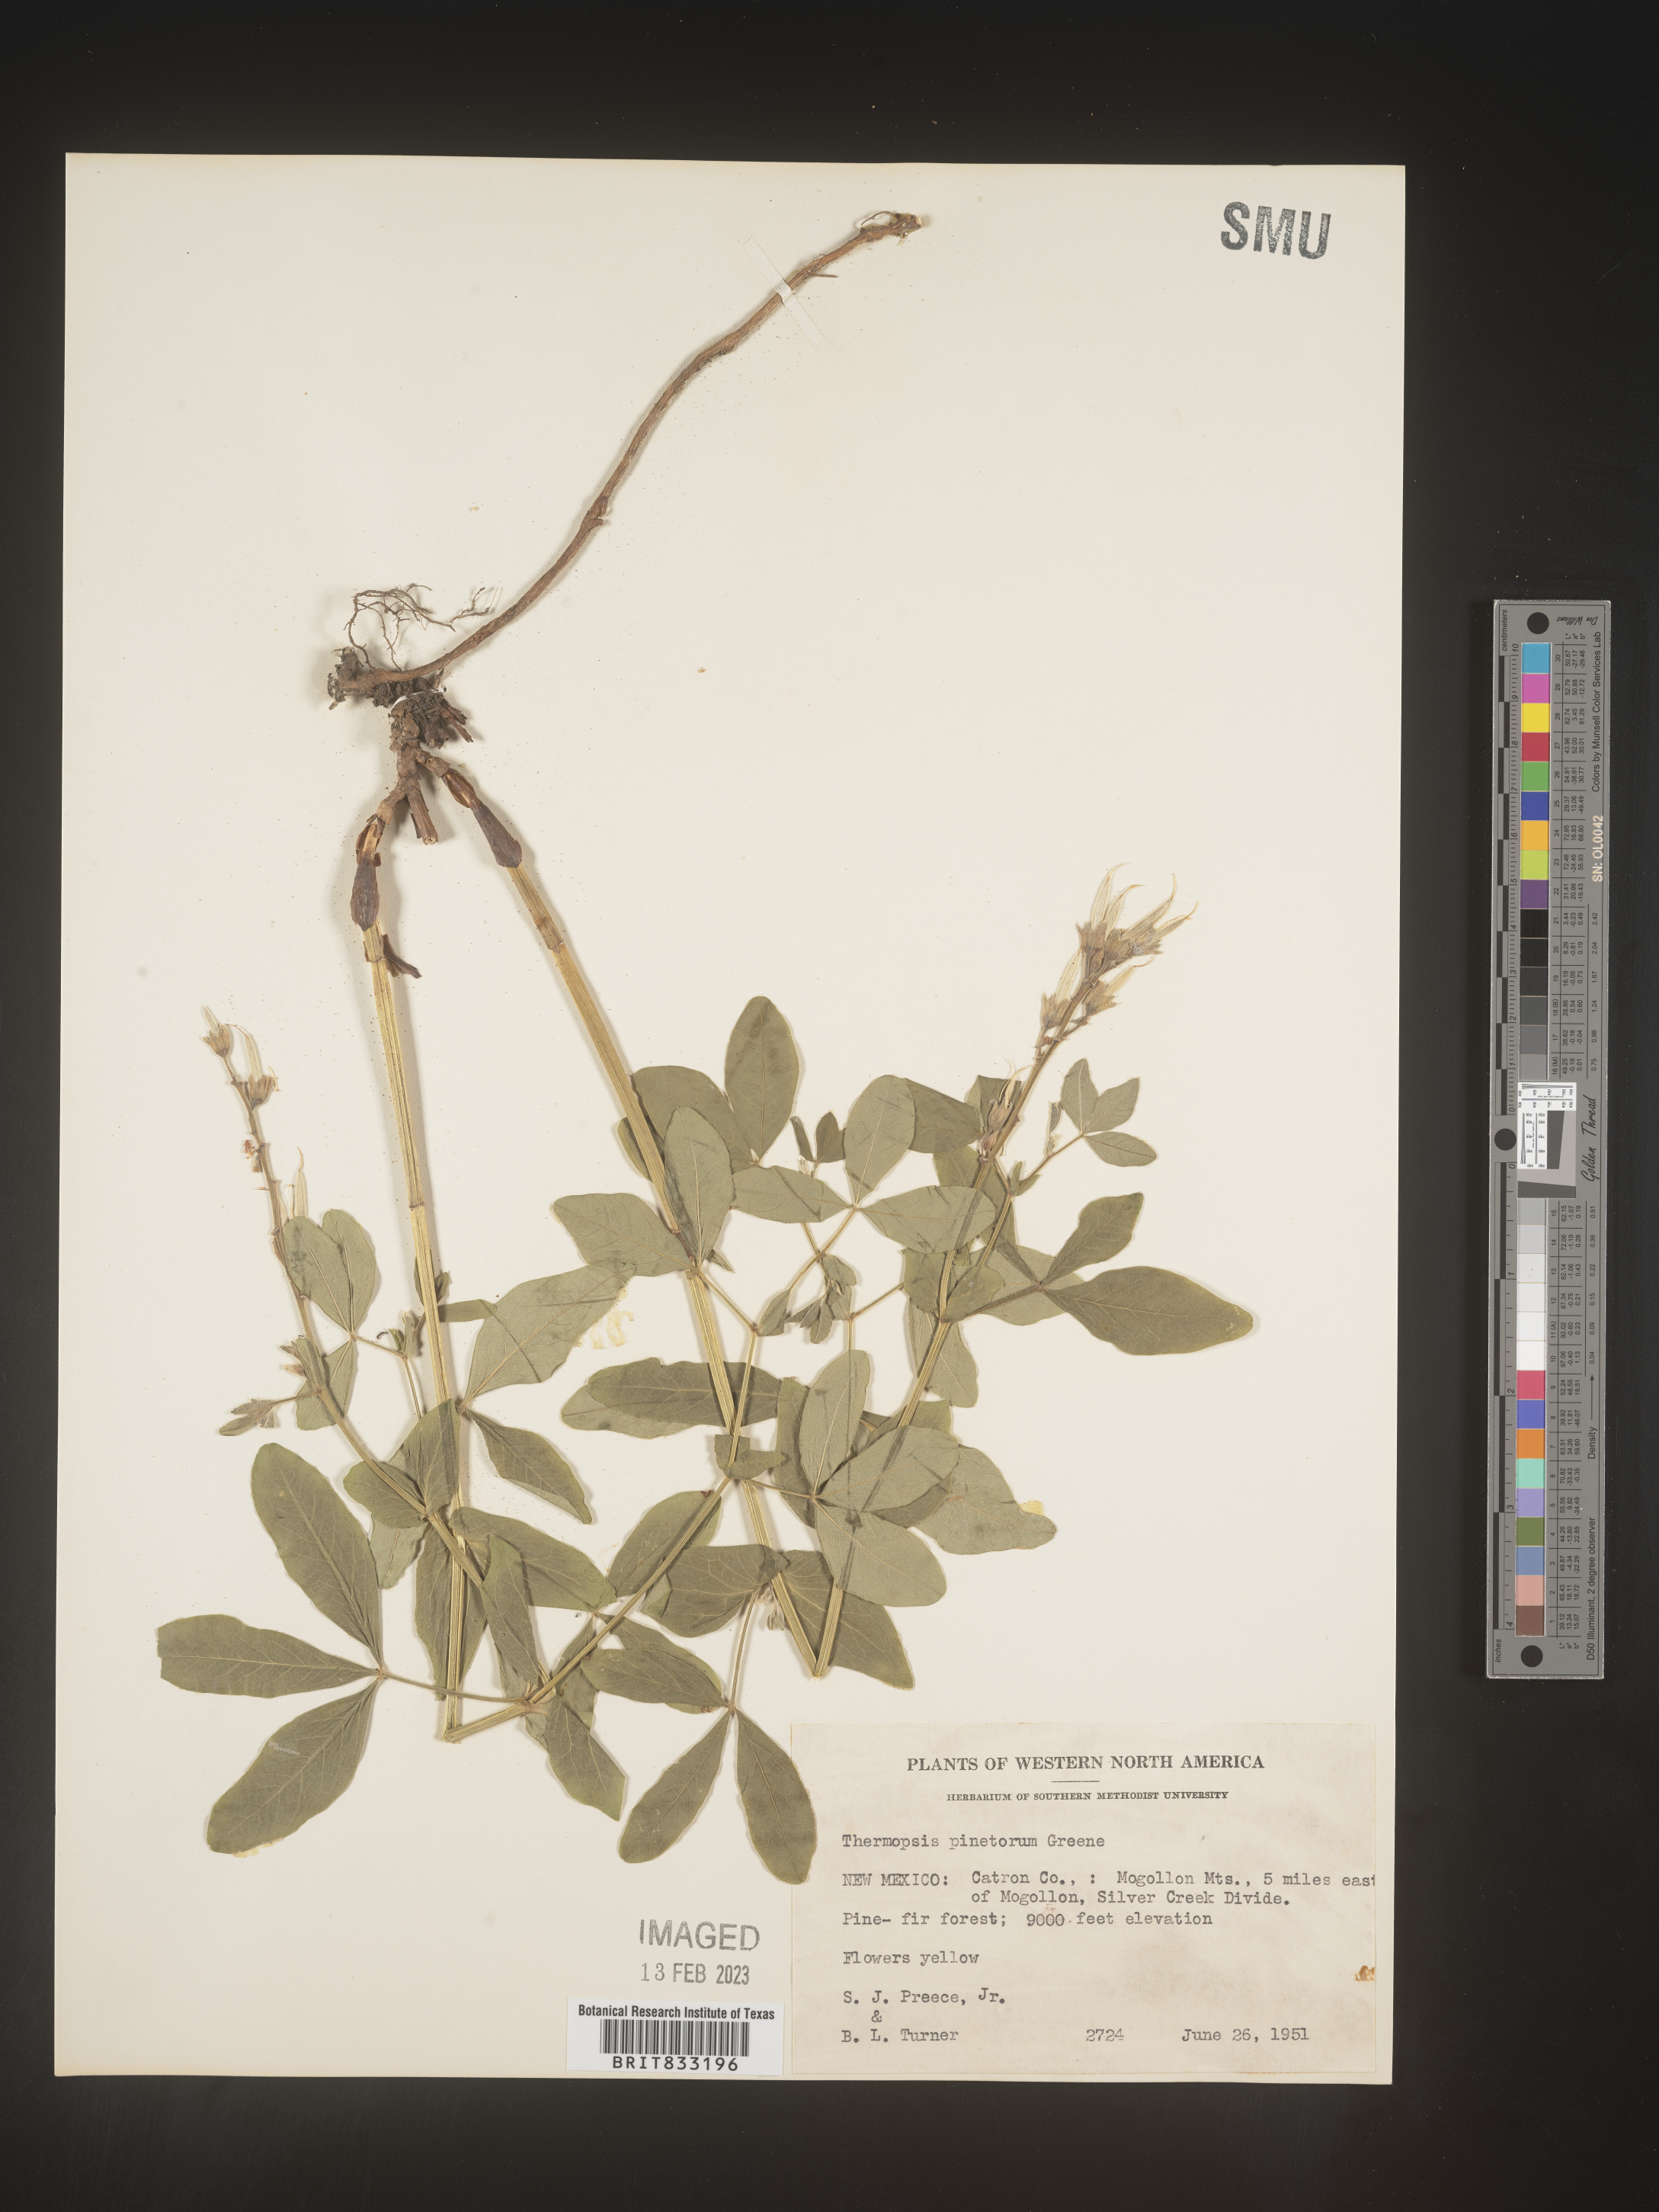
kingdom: Plantae
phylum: Tracheophyta
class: Magnoliopsida
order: Fabales
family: Fabaceae
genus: Thermopsis
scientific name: Thermopsis rhombifolia
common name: Circle-pod-pea
